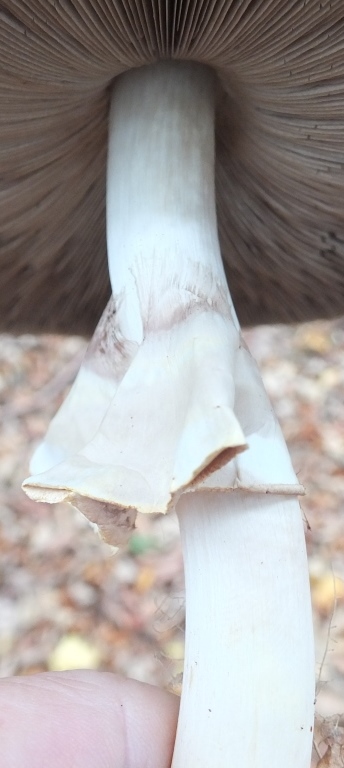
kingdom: Fungi
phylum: Basidiomycota
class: Agaricomycetes
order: Agaricales
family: Agaricaceae
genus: Agaricus
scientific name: Agaricus moelleri
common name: perlehøne-champignon
